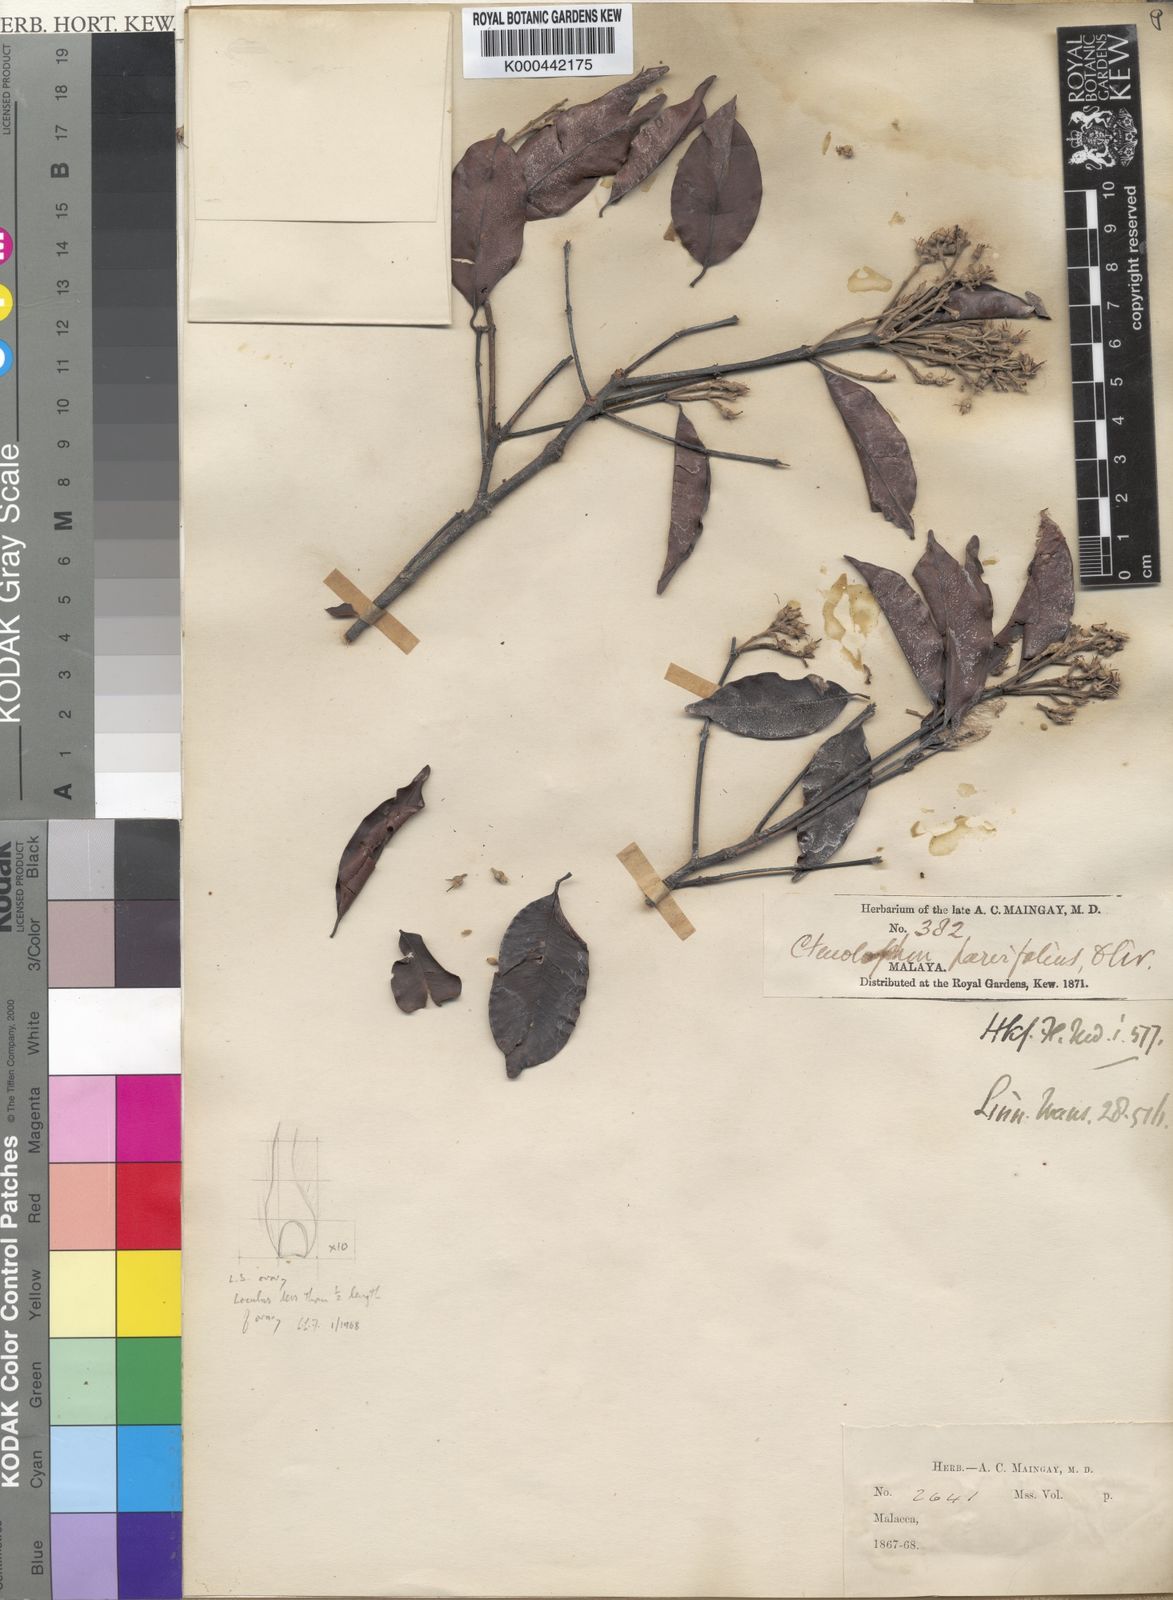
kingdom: Plantae
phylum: Tracheophyta
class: Magnoliopsida
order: Malpighiales
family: Ctenolophonaceae
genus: Ctenolophon
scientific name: Ctenolophon parvifolius
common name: Mertas
